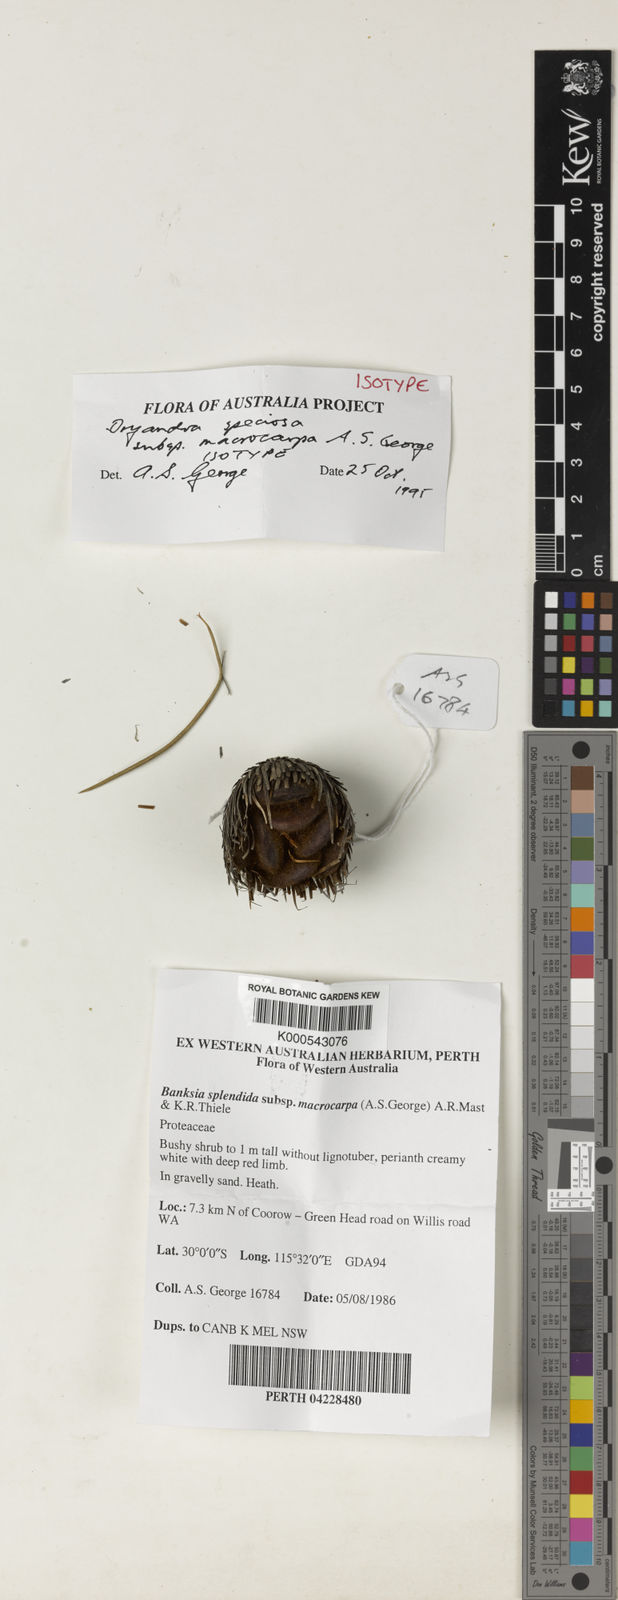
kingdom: Plantae
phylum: Tracheophyta
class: Magnoliopsida
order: Proteales
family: Proteaceae
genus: Banksia
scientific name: Banksia splendida
